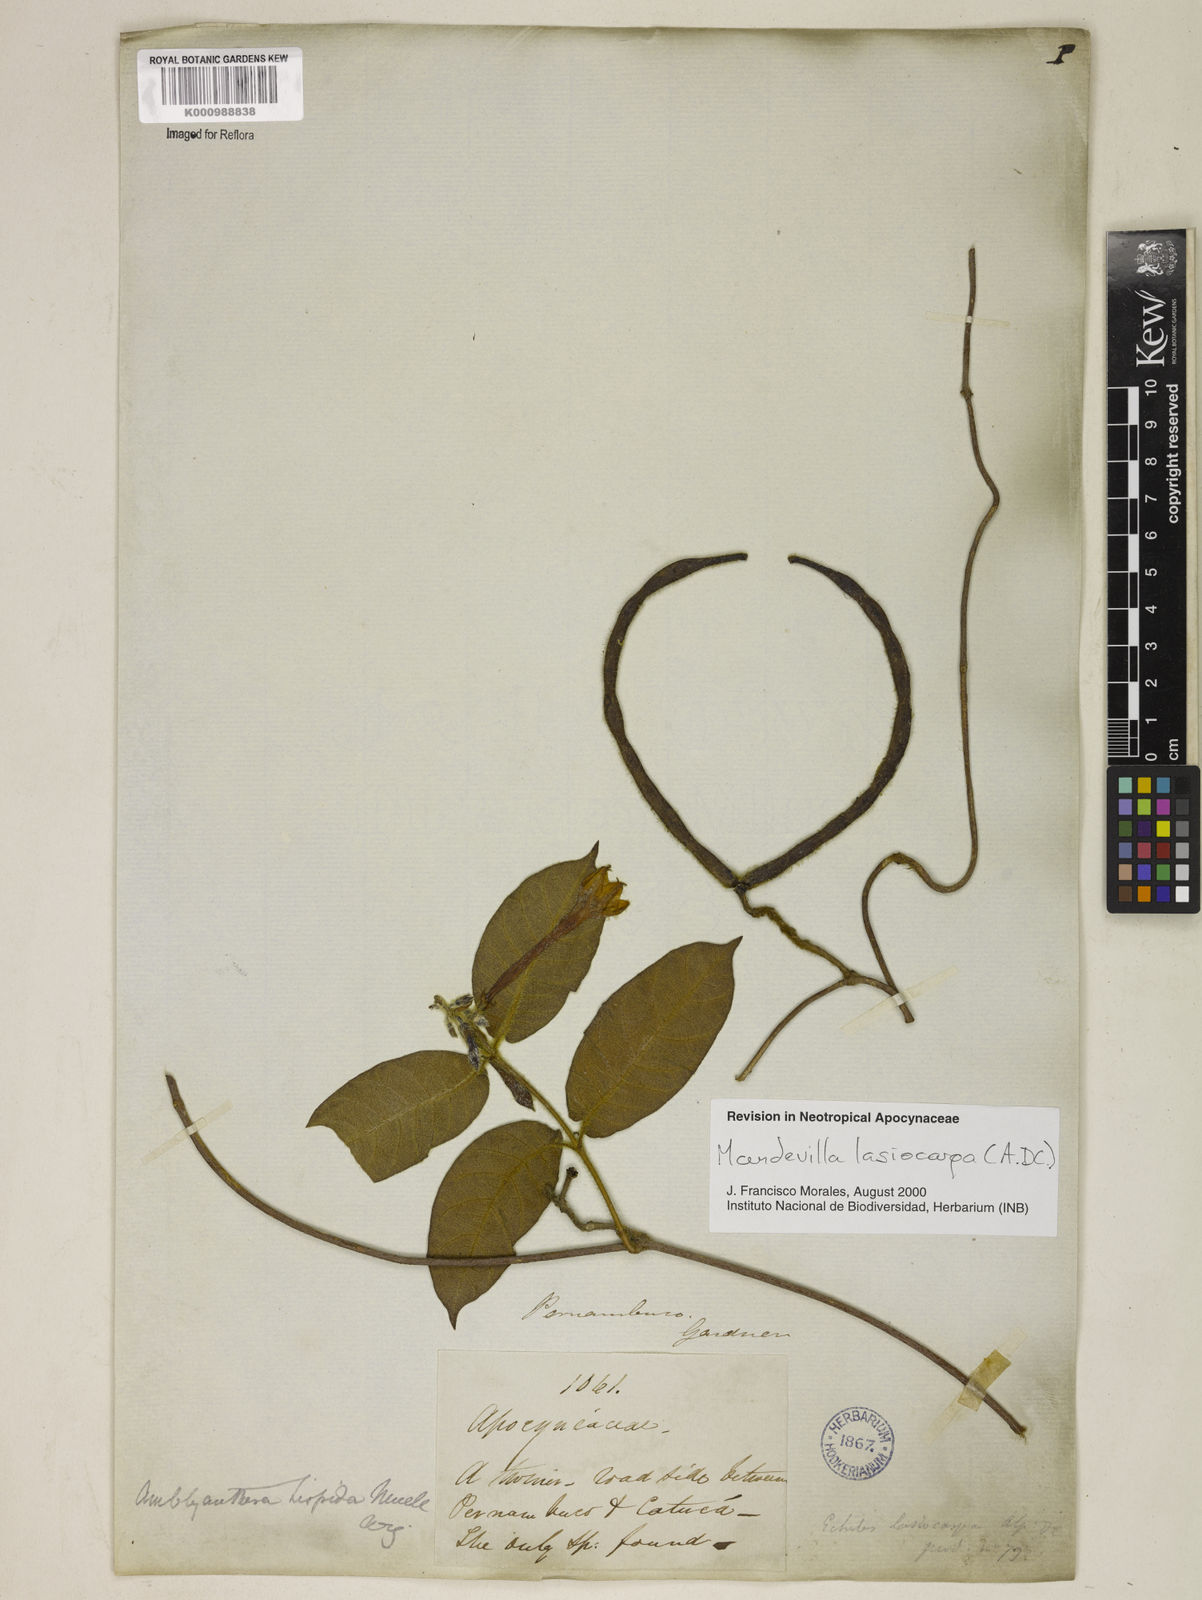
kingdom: Plantae
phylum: Tracheophyta
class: Magnoliopsida
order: Gentianales
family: Apocynaceae
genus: Mandevilla
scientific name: Mandevilla hirsuta
